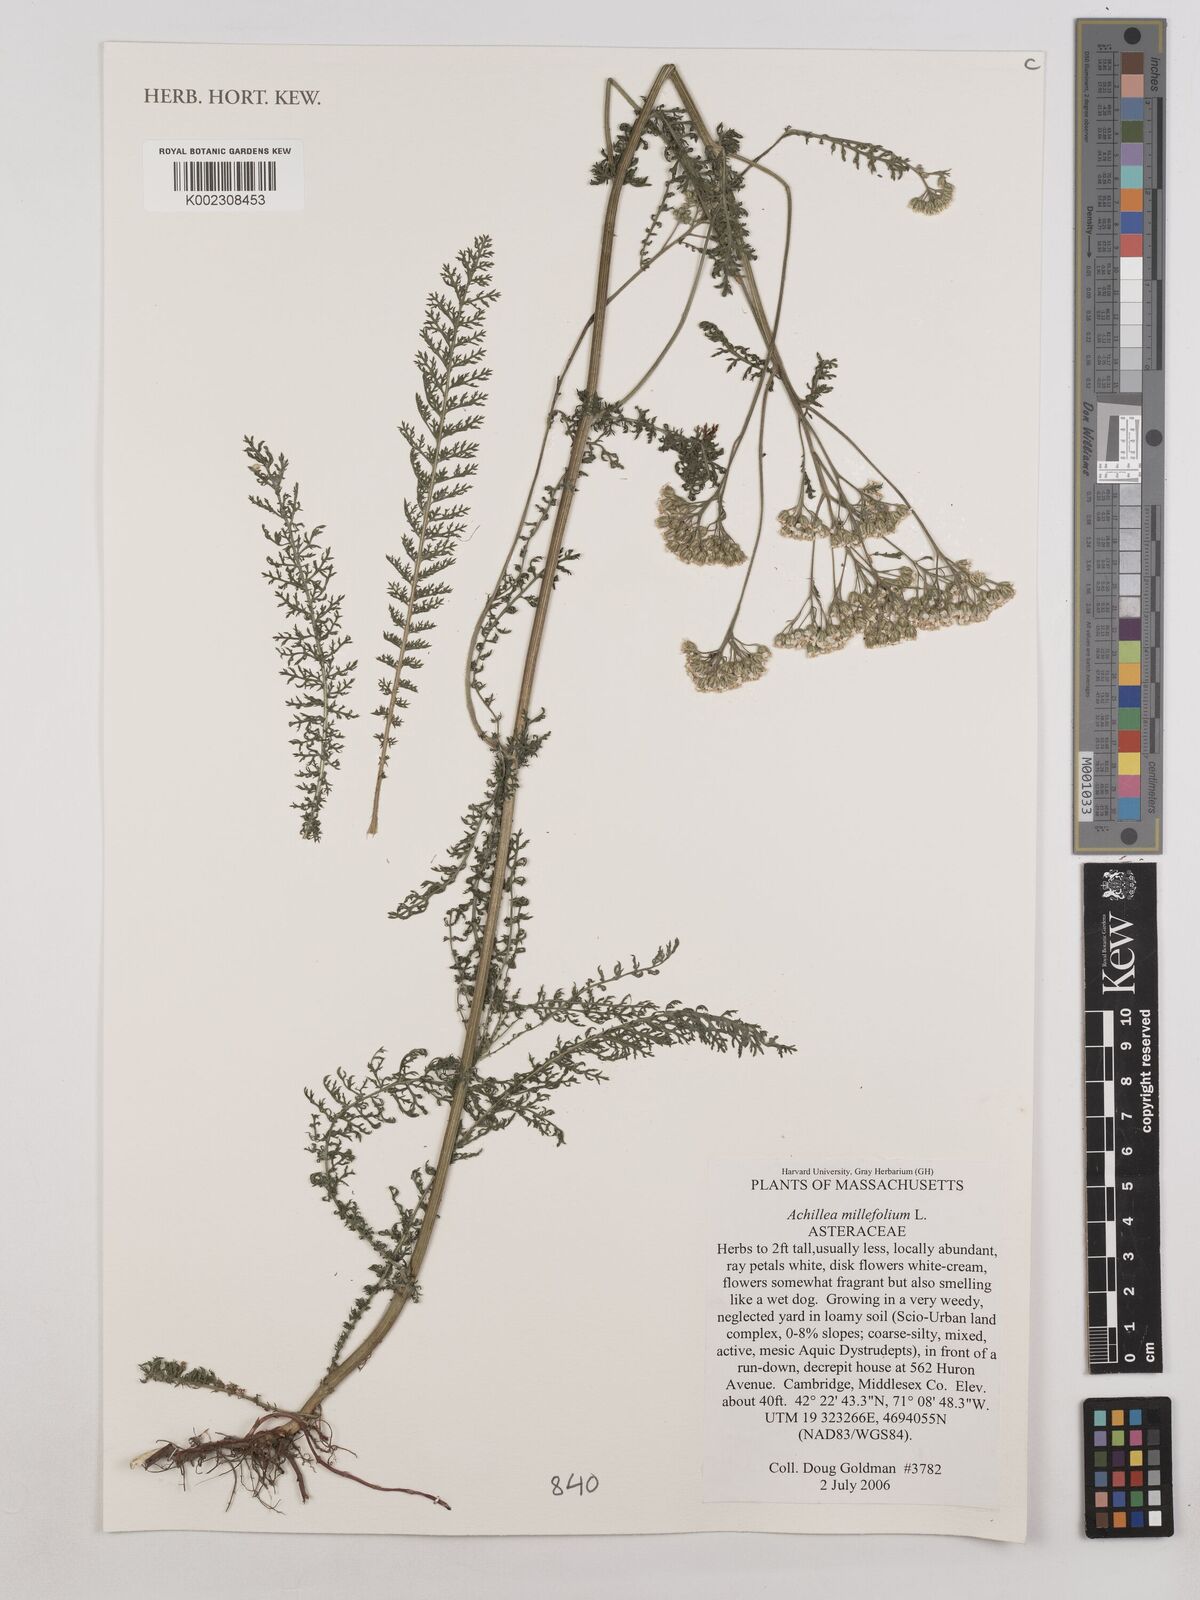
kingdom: Plantae
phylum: Tracheophyta
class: Magnoliopsida
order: Asterales
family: Asteraceae
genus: Achillea
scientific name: Achillea millefolium
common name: Yarrow
